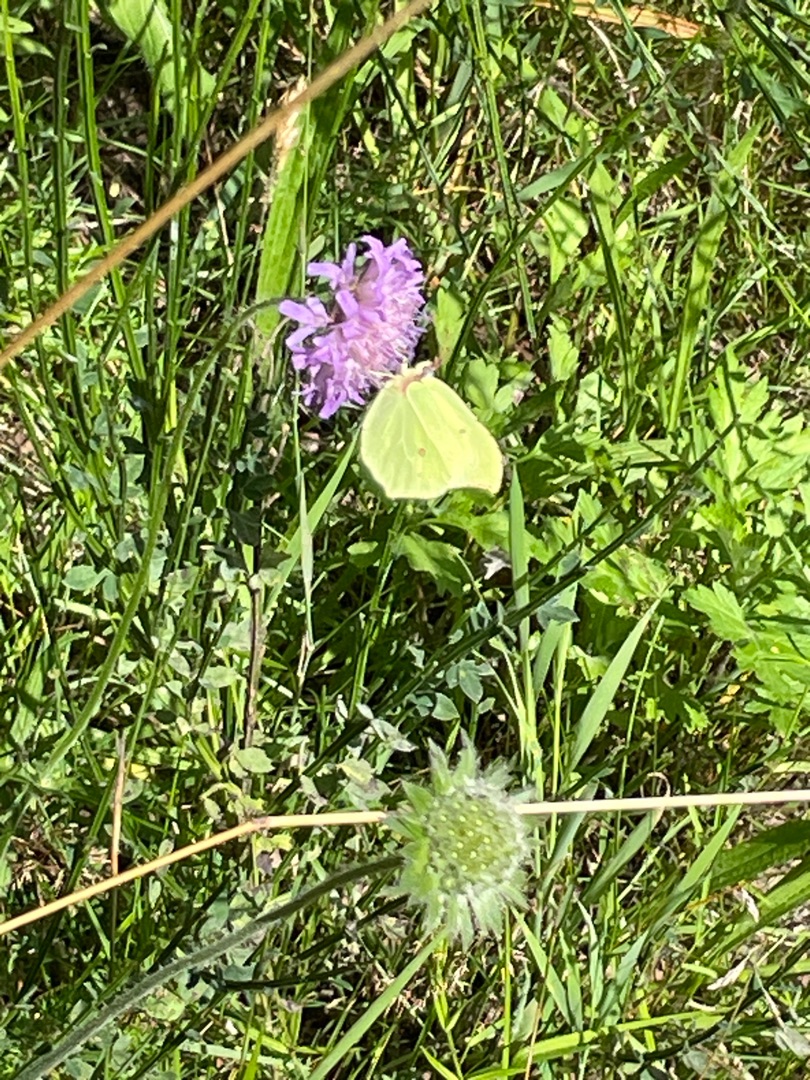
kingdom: Animalia
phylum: Arthropoda
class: Insecta
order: Lepidoptera
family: Pieridae
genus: Gonepteryx
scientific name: Gonepteryx rhamni
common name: Citronsommerfugl
